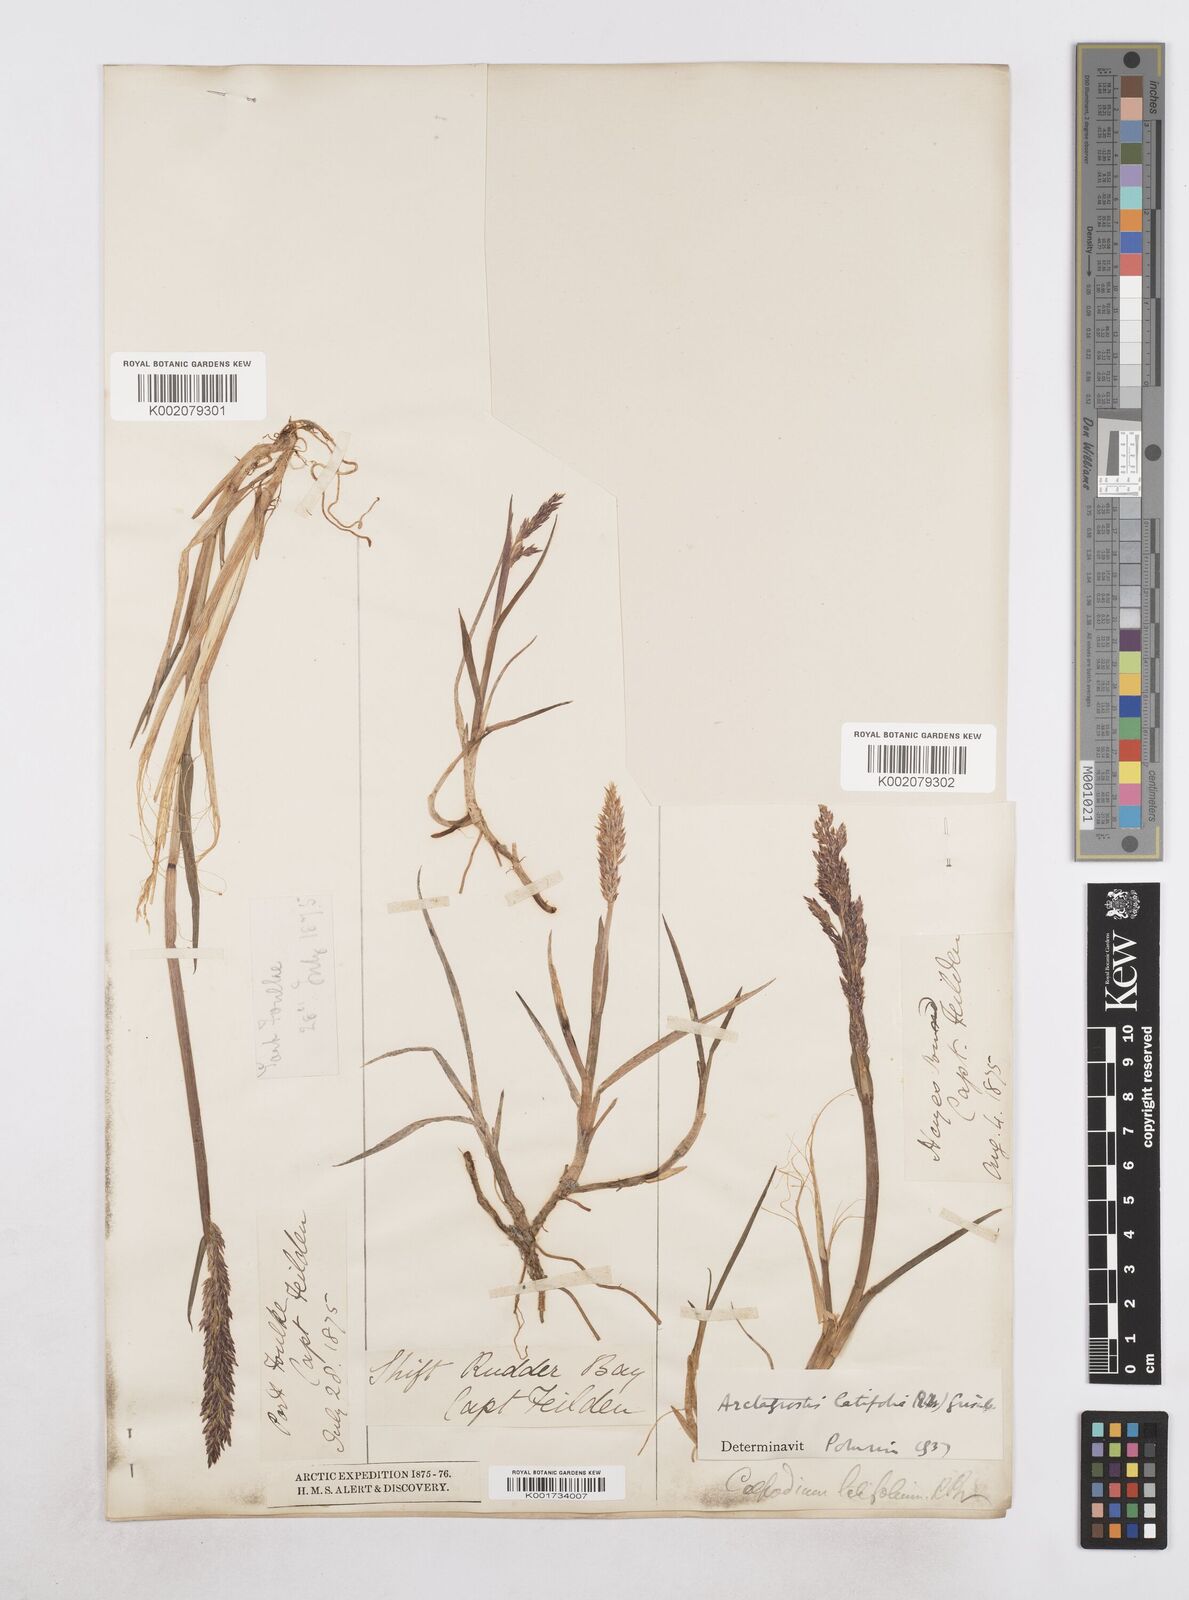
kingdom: Plantae
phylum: Tracheophyta
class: Liliopsida
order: Poales
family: Poaceae
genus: Arctagrostis
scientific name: Arctagrostis latifolia
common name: Arctic grass
